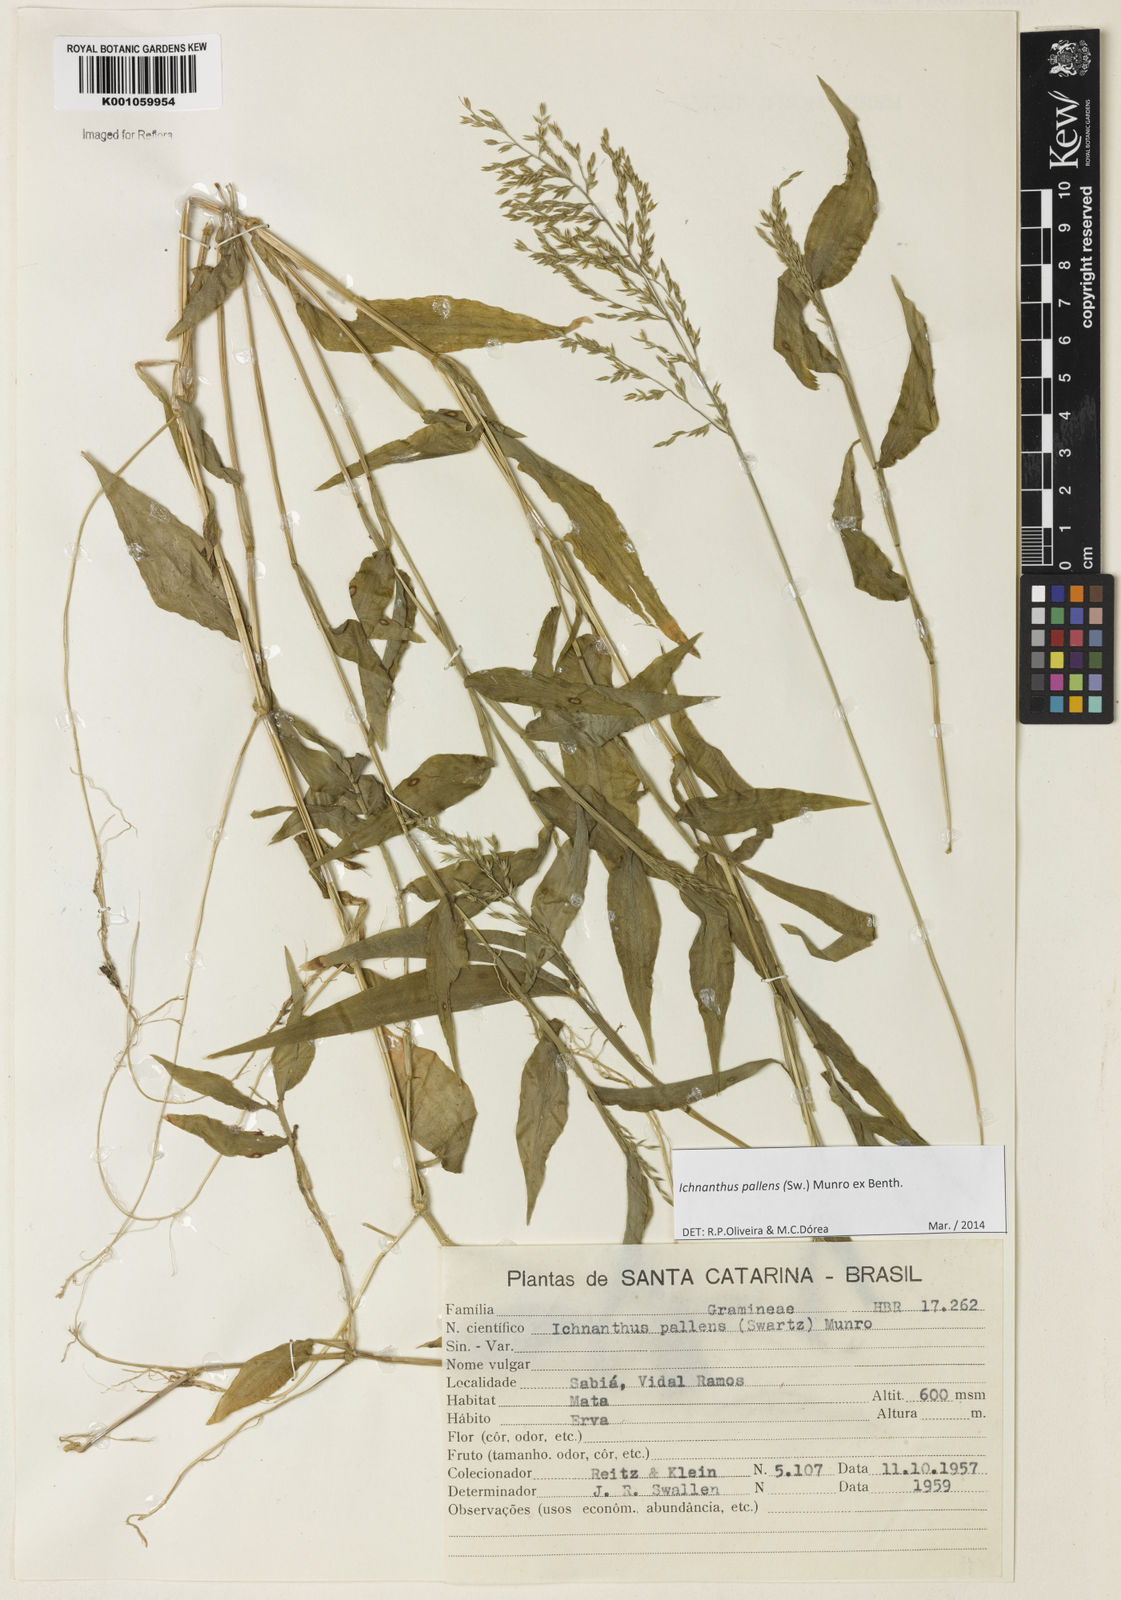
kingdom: Plantae
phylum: Tracheophyta
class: Liliopsida
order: Poales
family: Poaceae
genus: Ichnanthus
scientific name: Ichnanthus pallens
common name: Water grass
